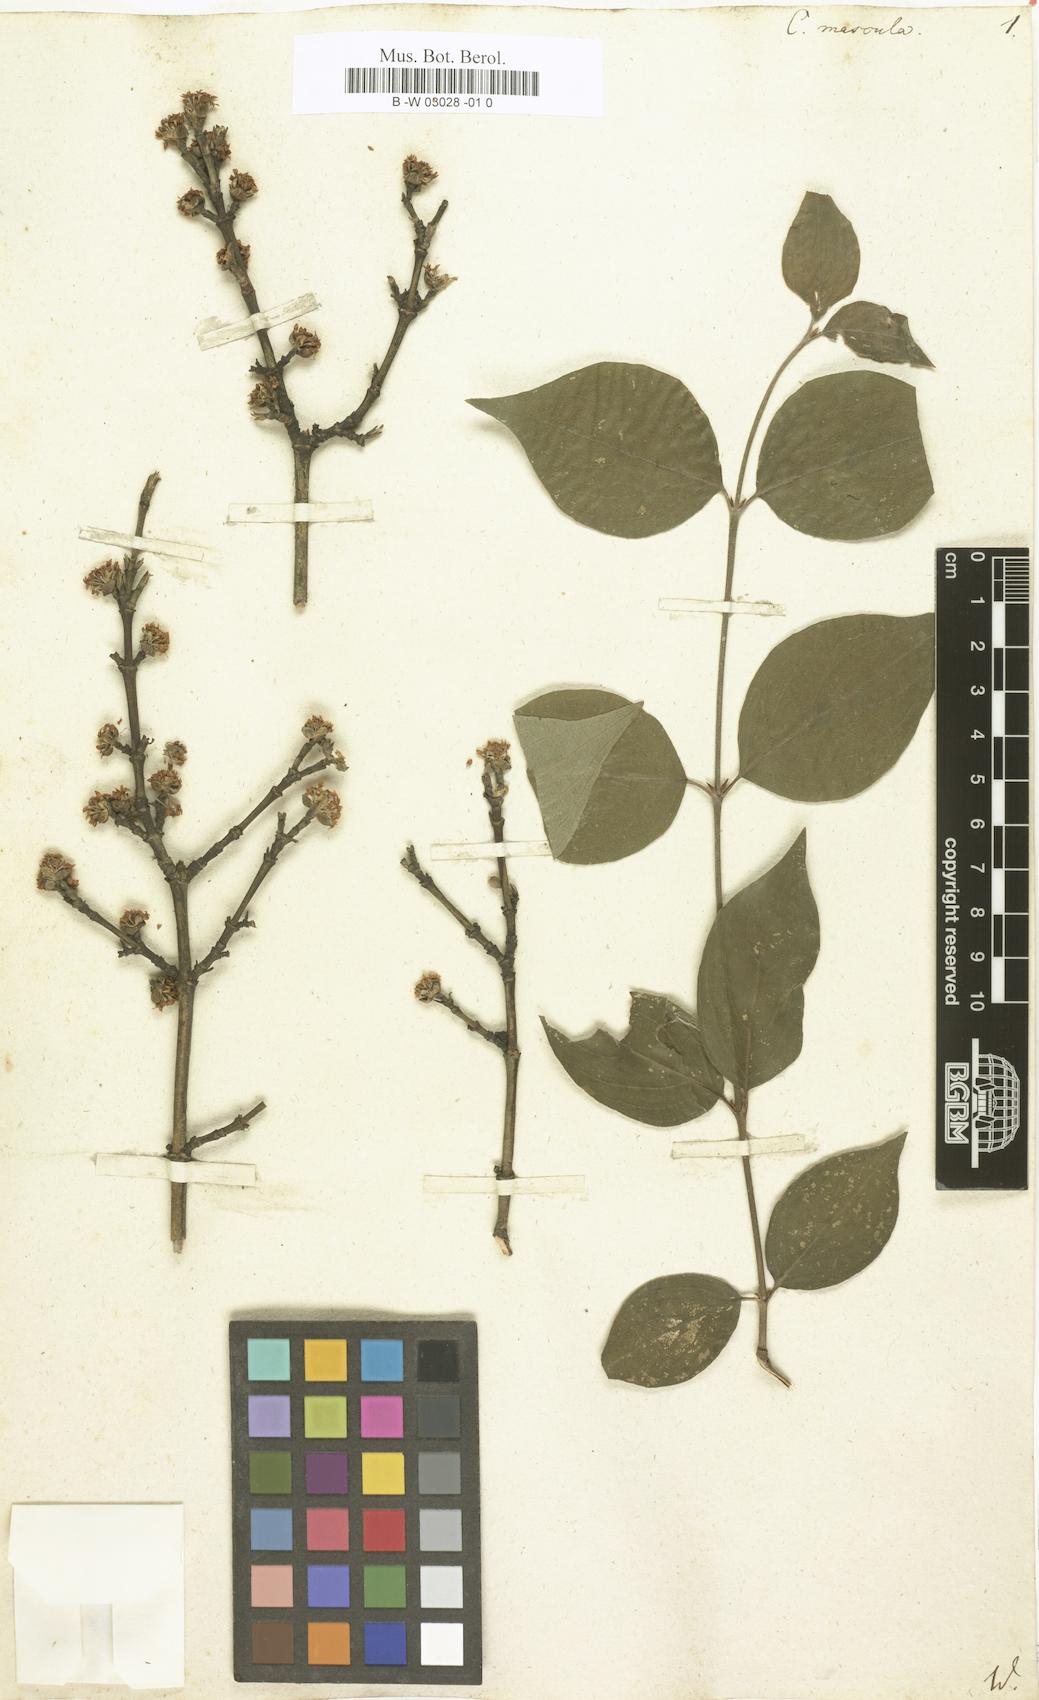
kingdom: Plantae
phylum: Tracheophyta
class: Magnoliopsida
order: Cornales
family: Cornaceae
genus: Cornus
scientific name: Cornus mas
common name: Cornelian-cherry
